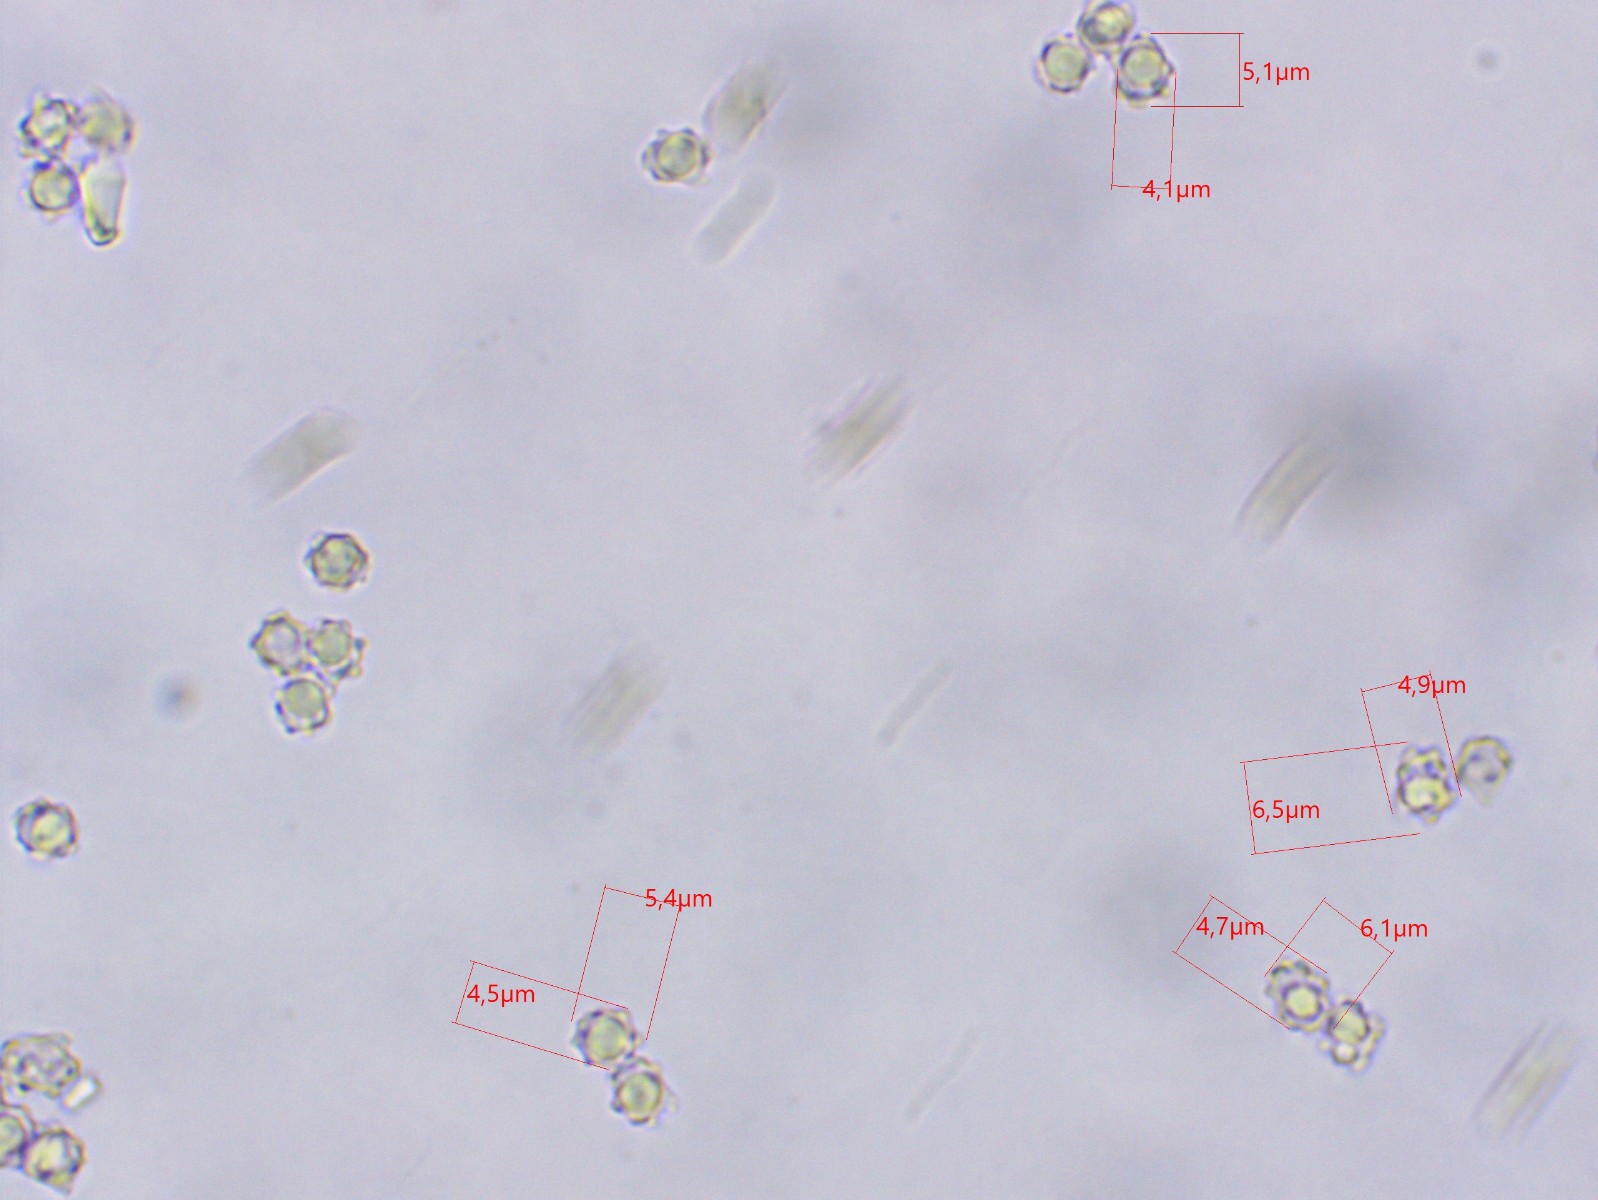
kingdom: Fungi
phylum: Basidiomycota
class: Agaricomycetes
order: Thelephorales
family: Bankeraceae
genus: Hydnellum
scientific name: Hydnellum ferrugineum
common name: rust-korkpigsvamp
